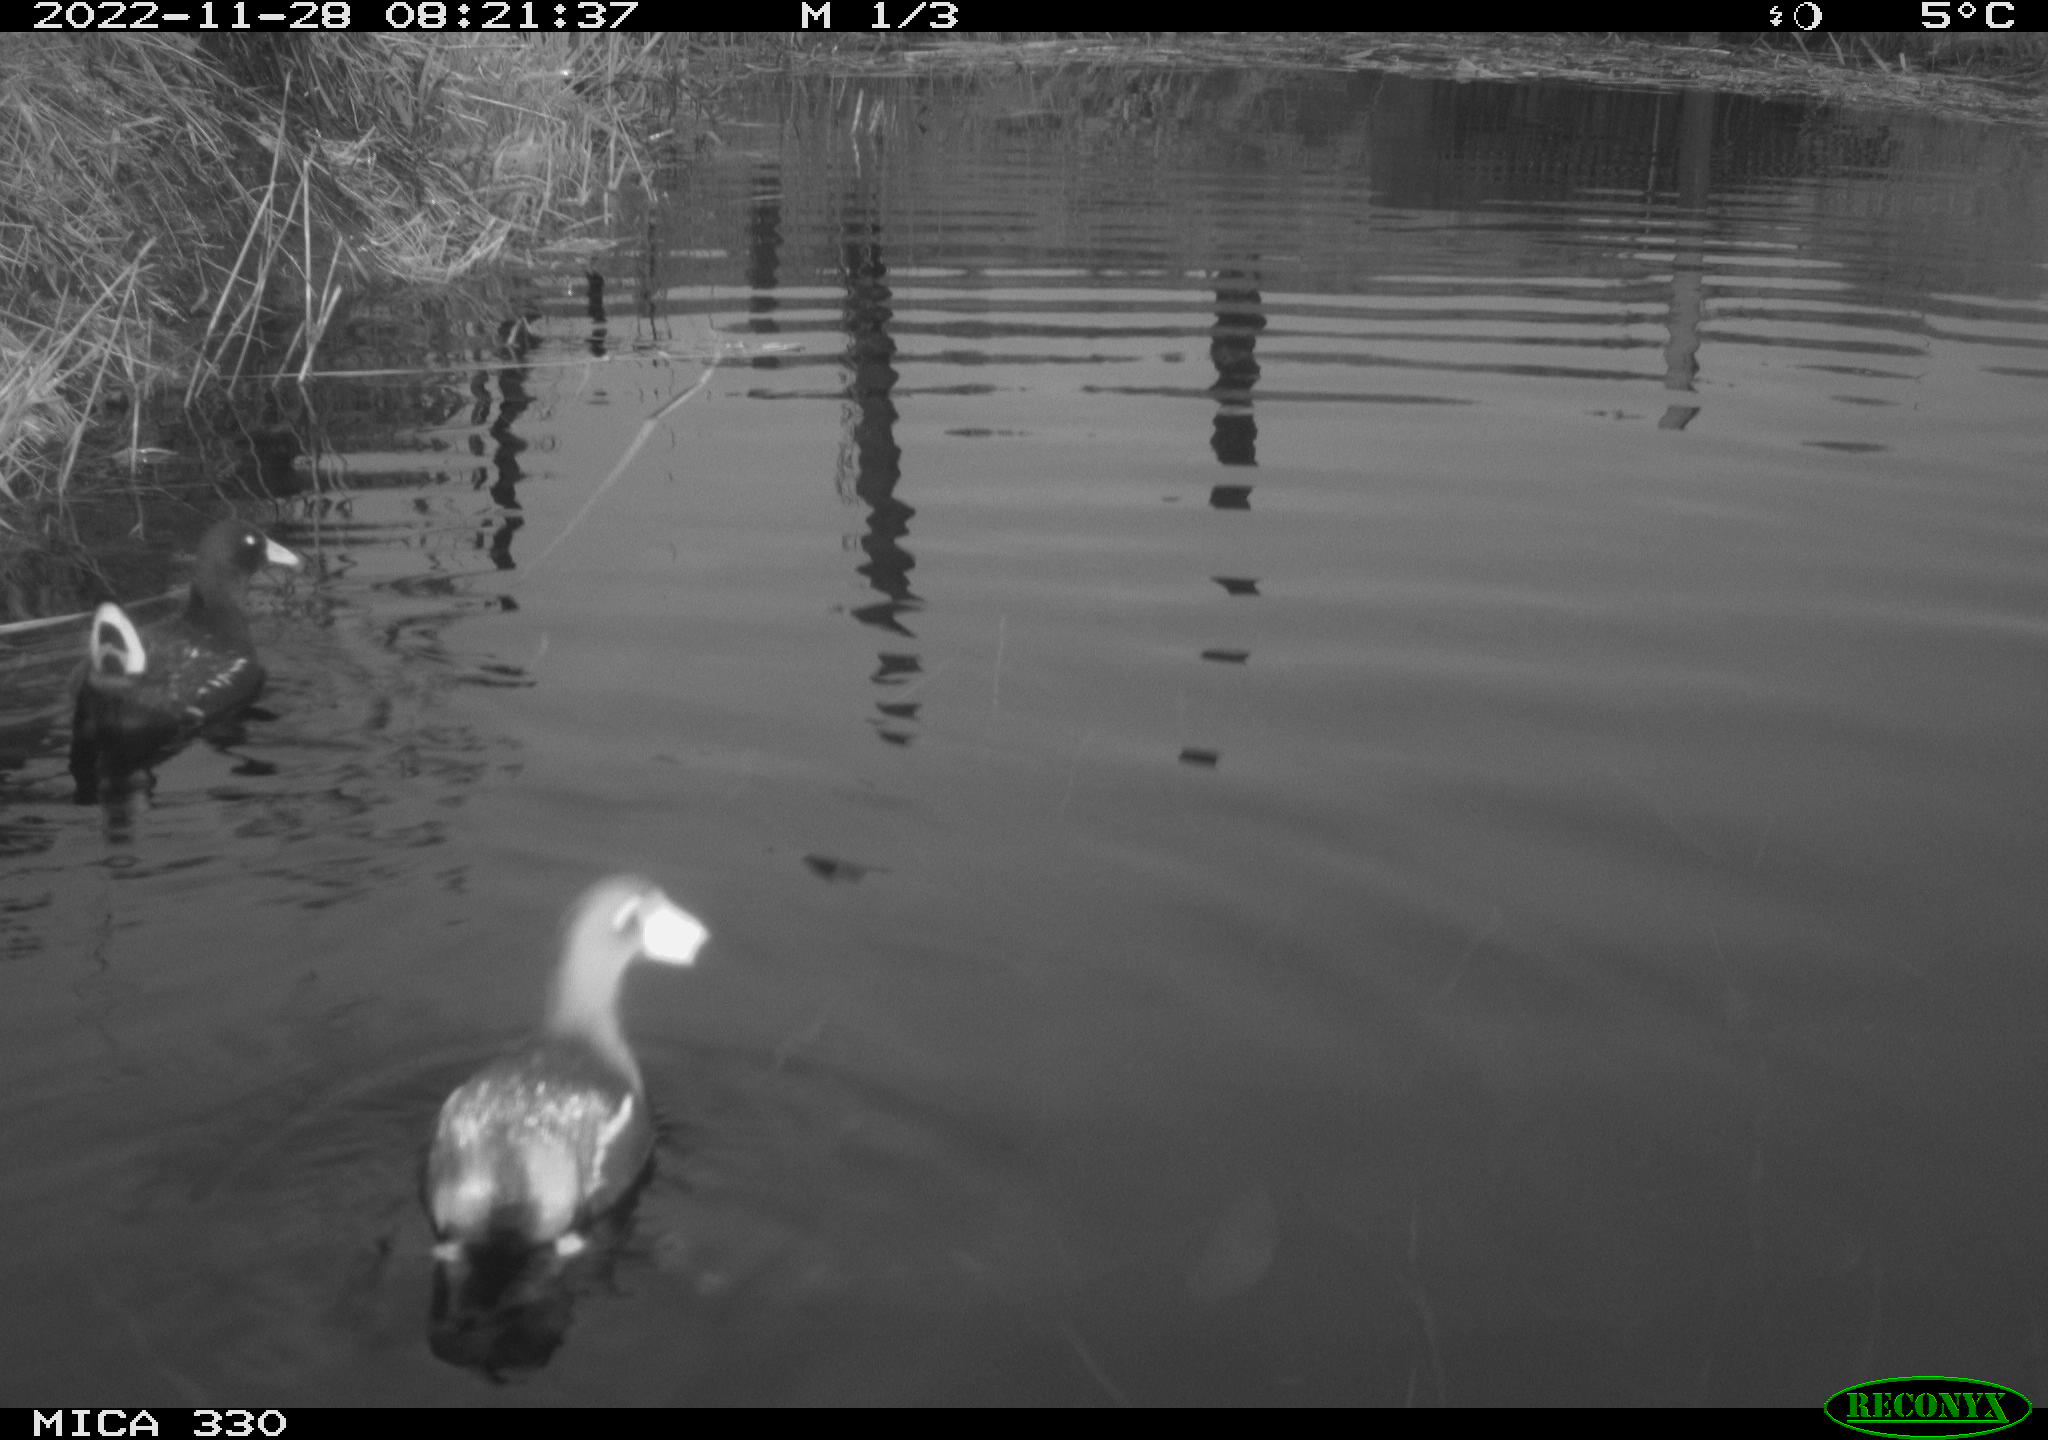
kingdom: Animalia
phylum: Chordata
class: Aves
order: Gruiformes
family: Rallidae
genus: Gallinula
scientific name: Gallinula chloropus
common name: Common moorhen
